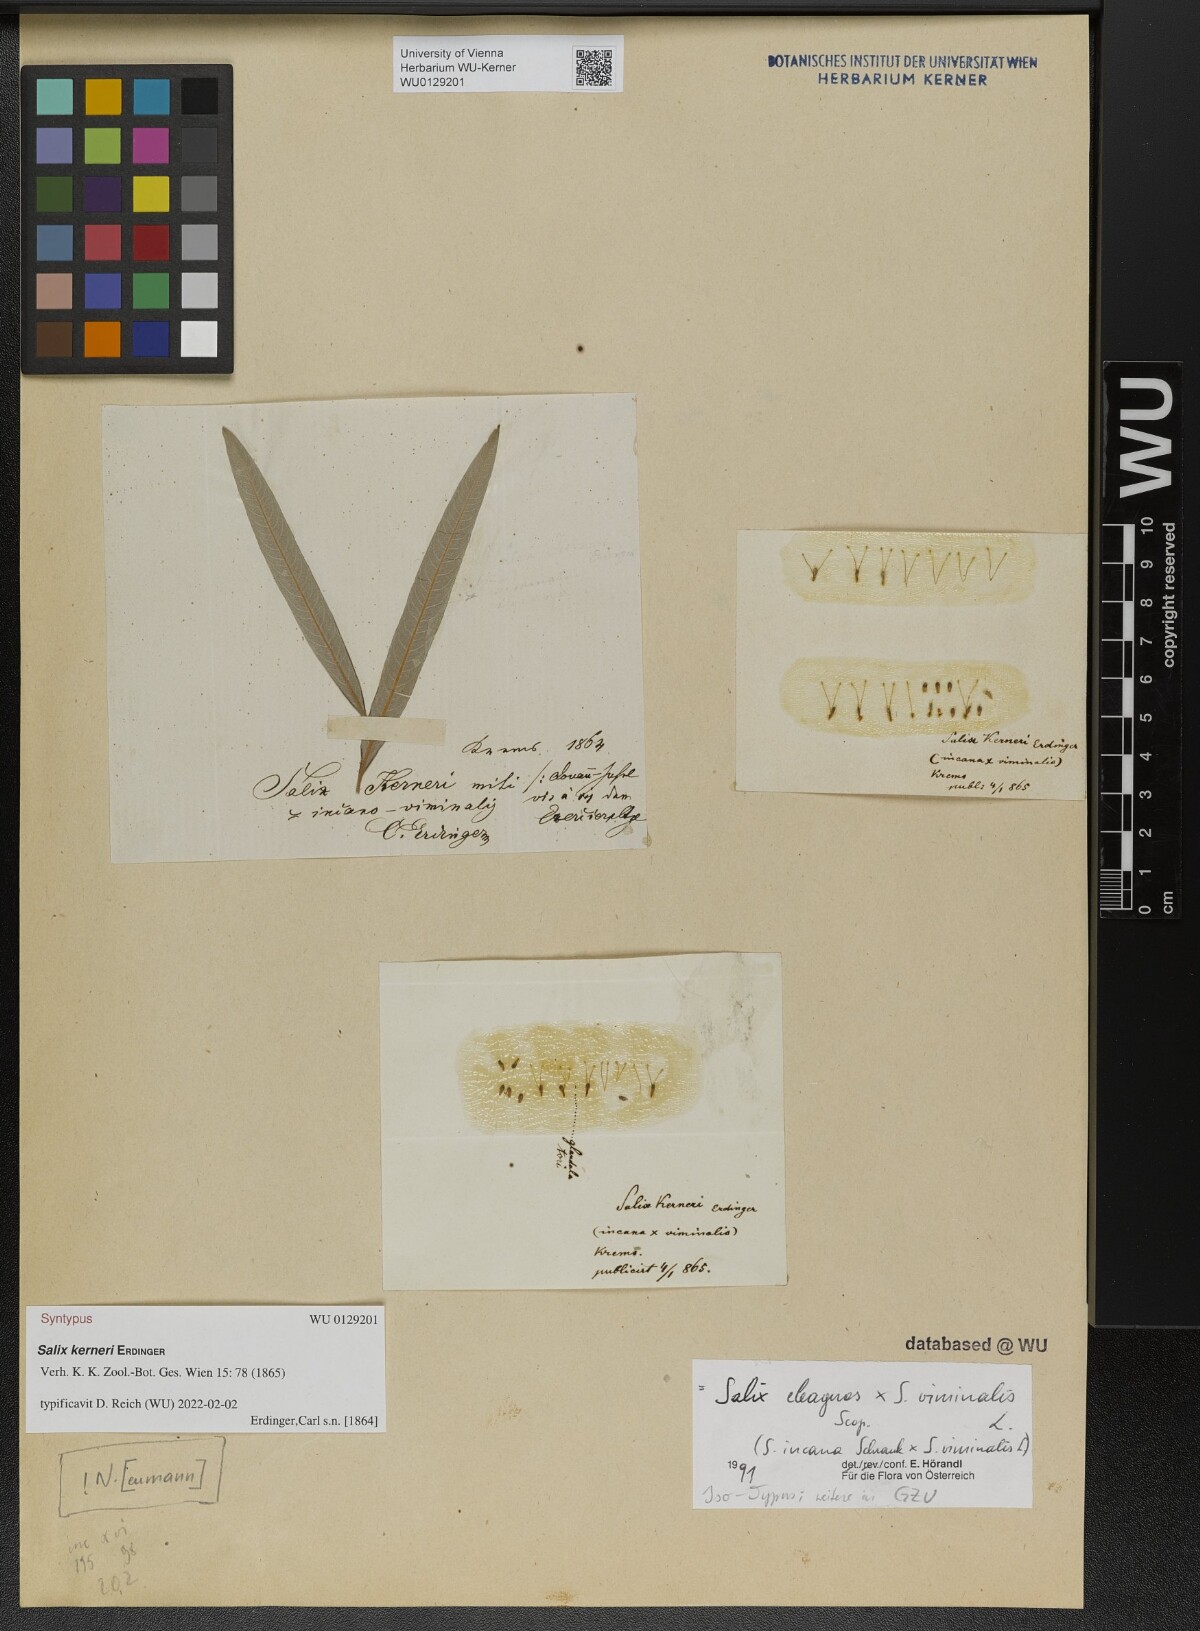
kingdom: Plantae
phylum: Tracheophyta
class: Magnoliopsida
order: Malpighiales
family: Salicaceae
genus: Salix
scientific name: Salix kerneri
